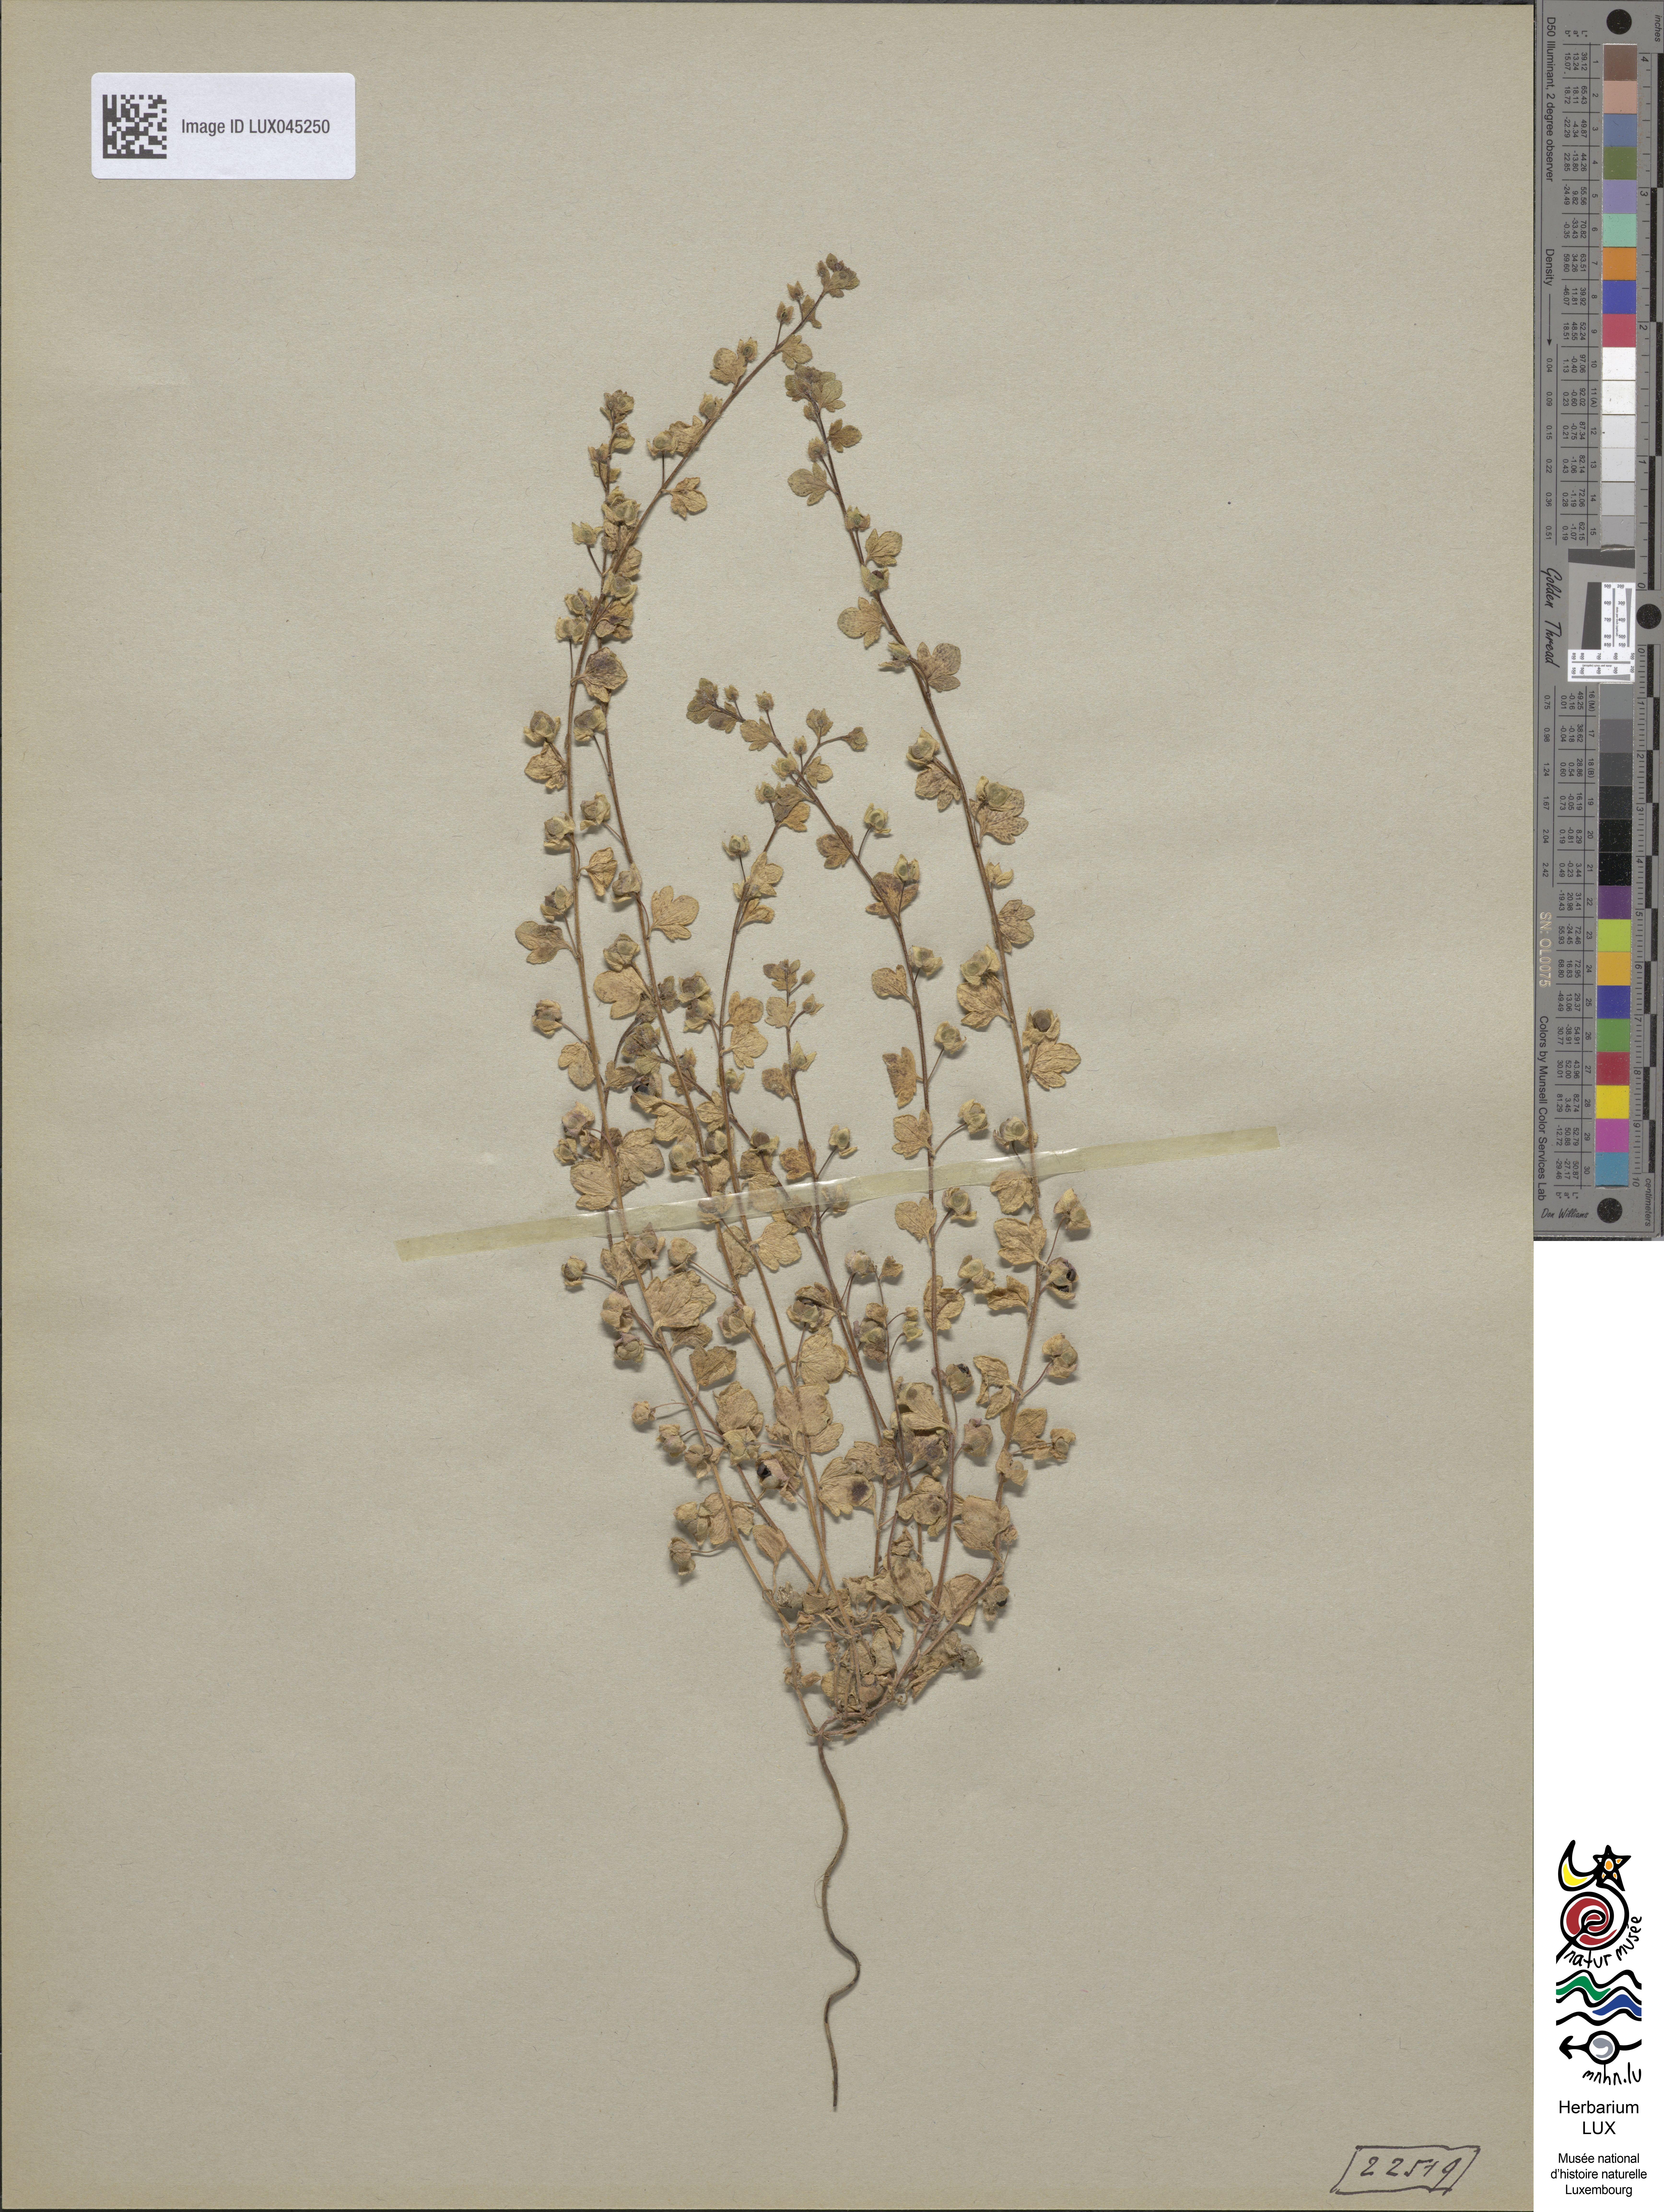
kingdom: Plantae
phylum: Tracheophyta
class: Magnoliopsida
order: Lamiales
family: Plantaginaceae
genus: Veronica
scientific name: Veronica hederifolia
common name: Ivy-leaved speedwell
